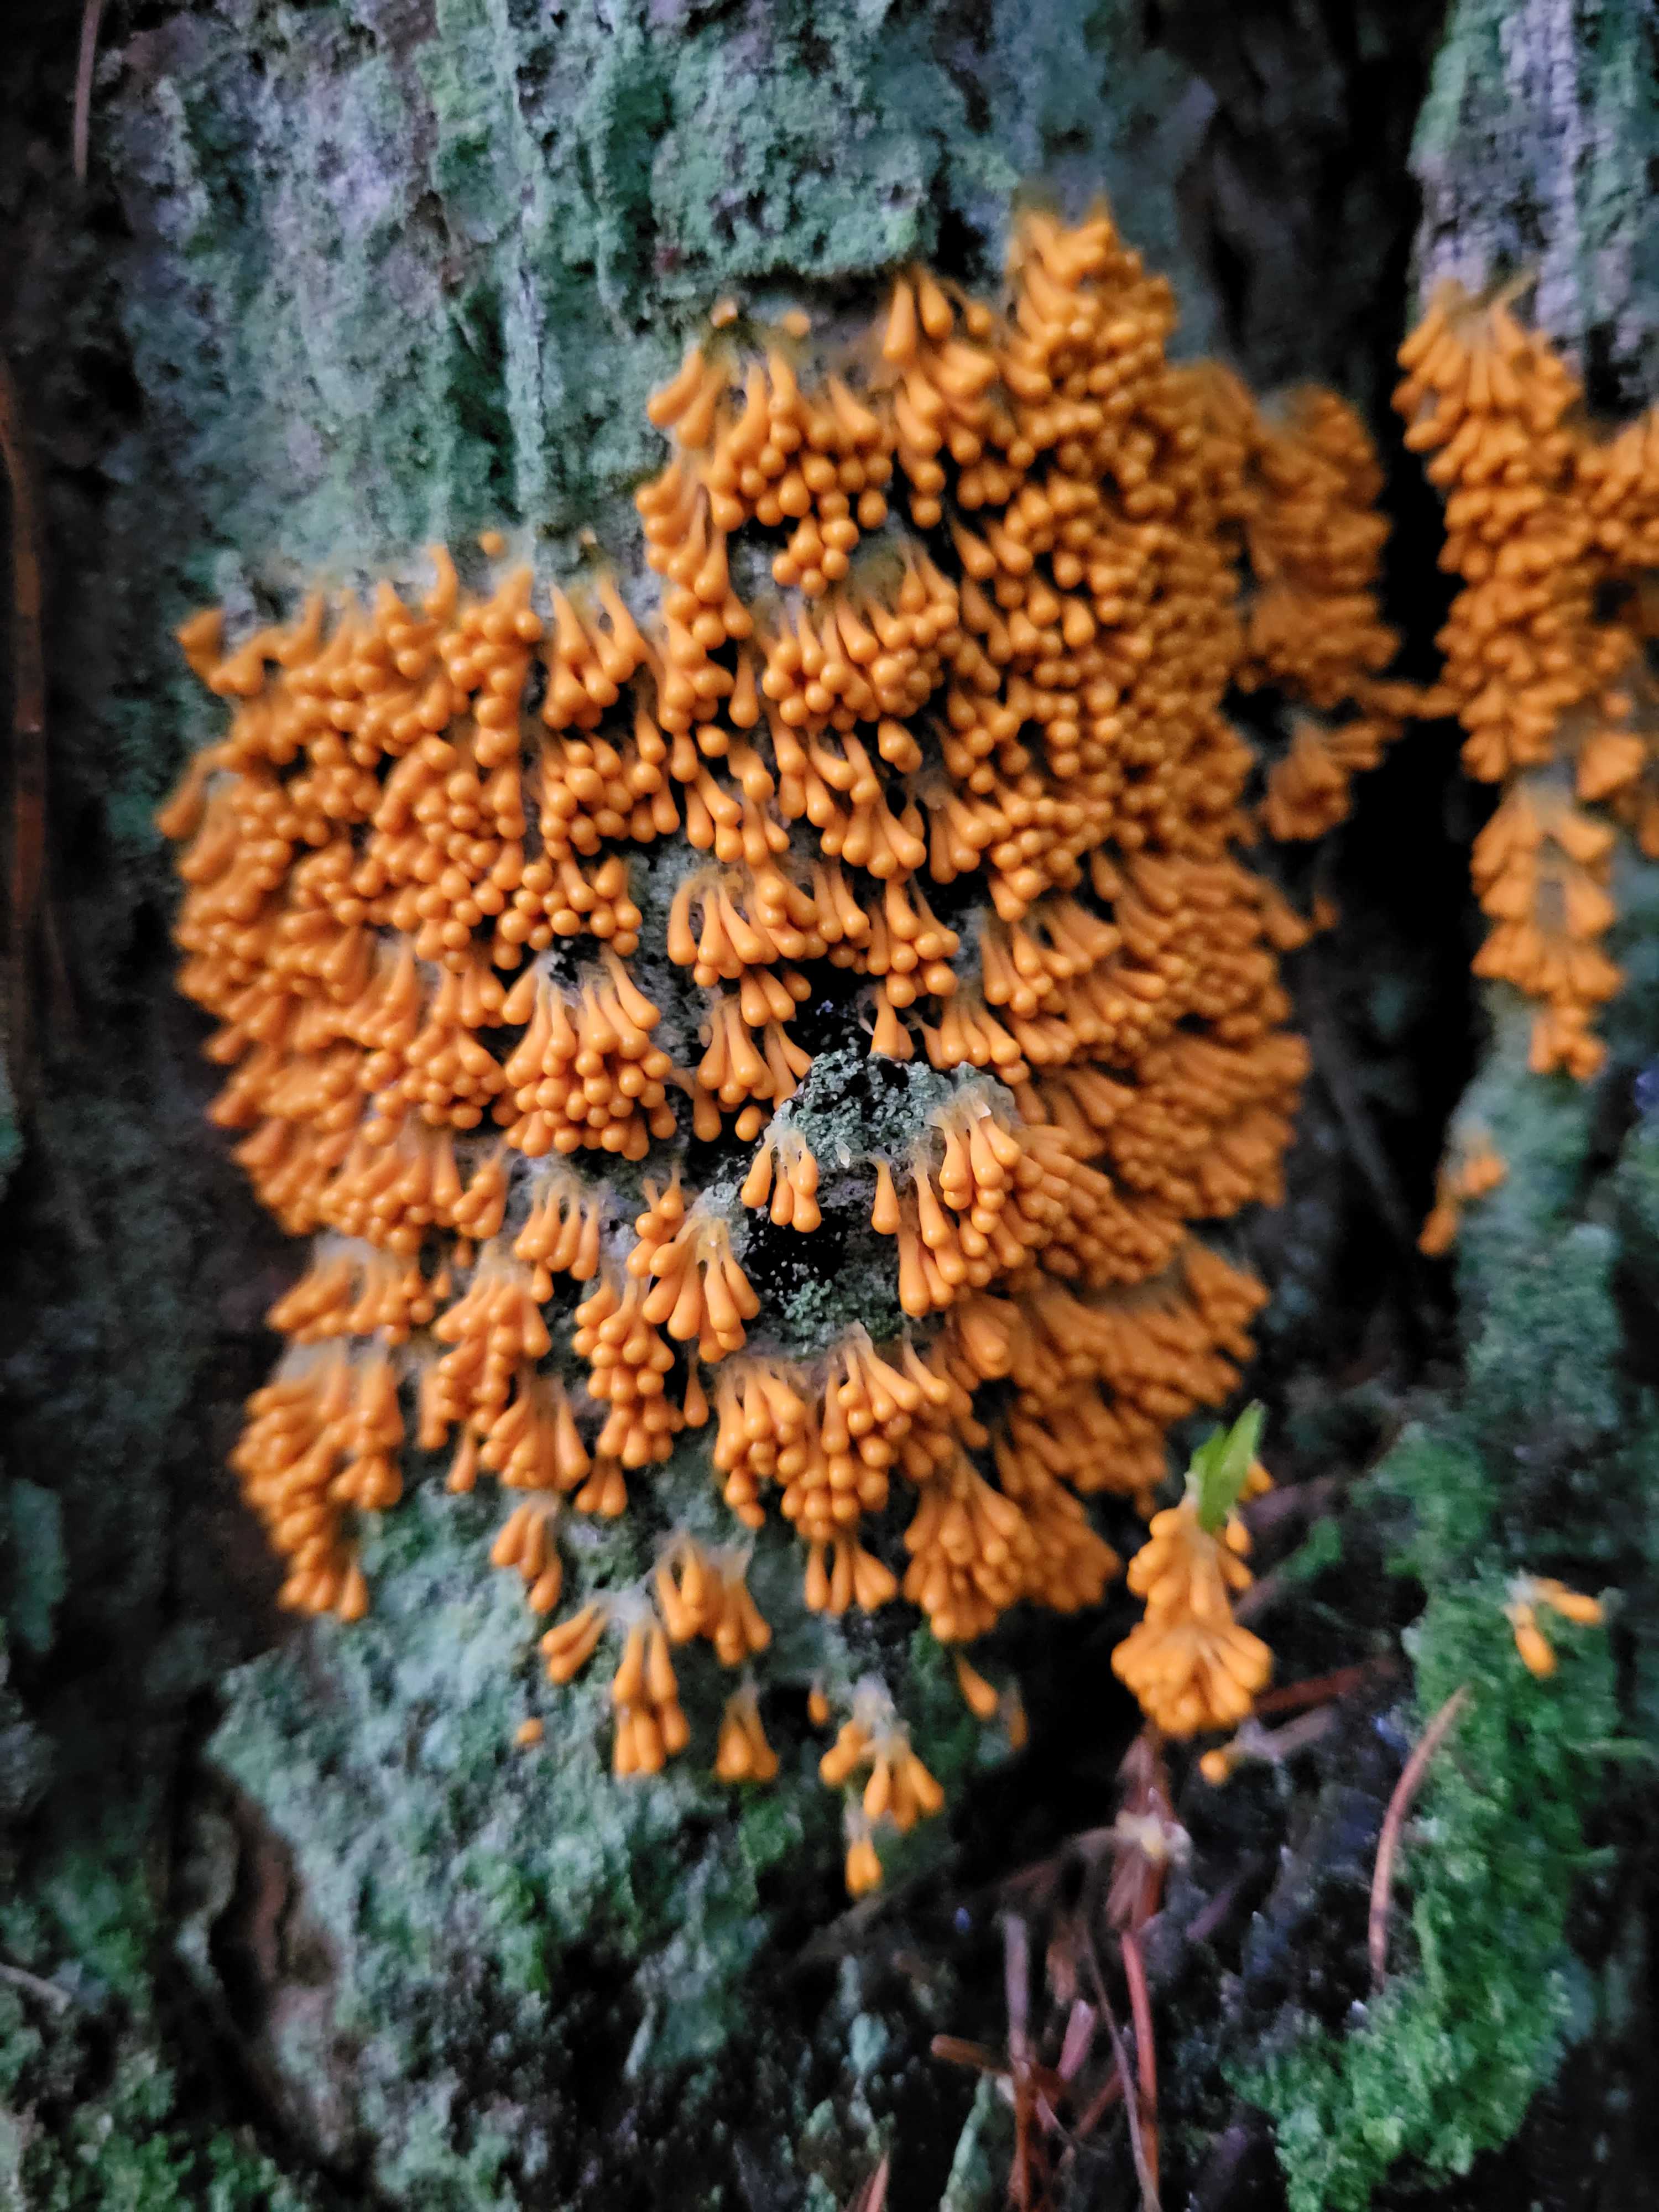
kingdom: Protozoa
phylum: Mycetozoa
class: Myxomycetes
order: Physarales
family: Physaraceae
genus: Leocarpus
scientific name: Leocarpus fragilis
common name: poleret glatfrø
